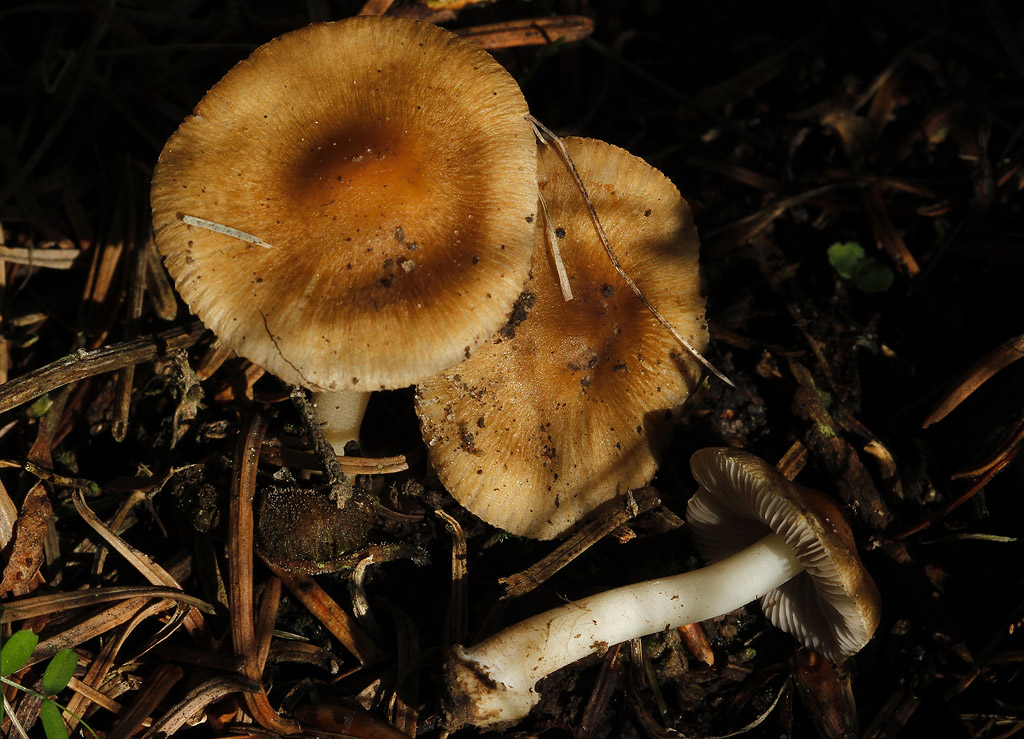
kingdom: Fungi
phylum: Basidiomycota
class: Agaricomycetes
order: Agaricales
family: Inocybaceae
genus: Inocybe
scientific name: Inocybe mixtilis
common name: randknoldet trævlhat
